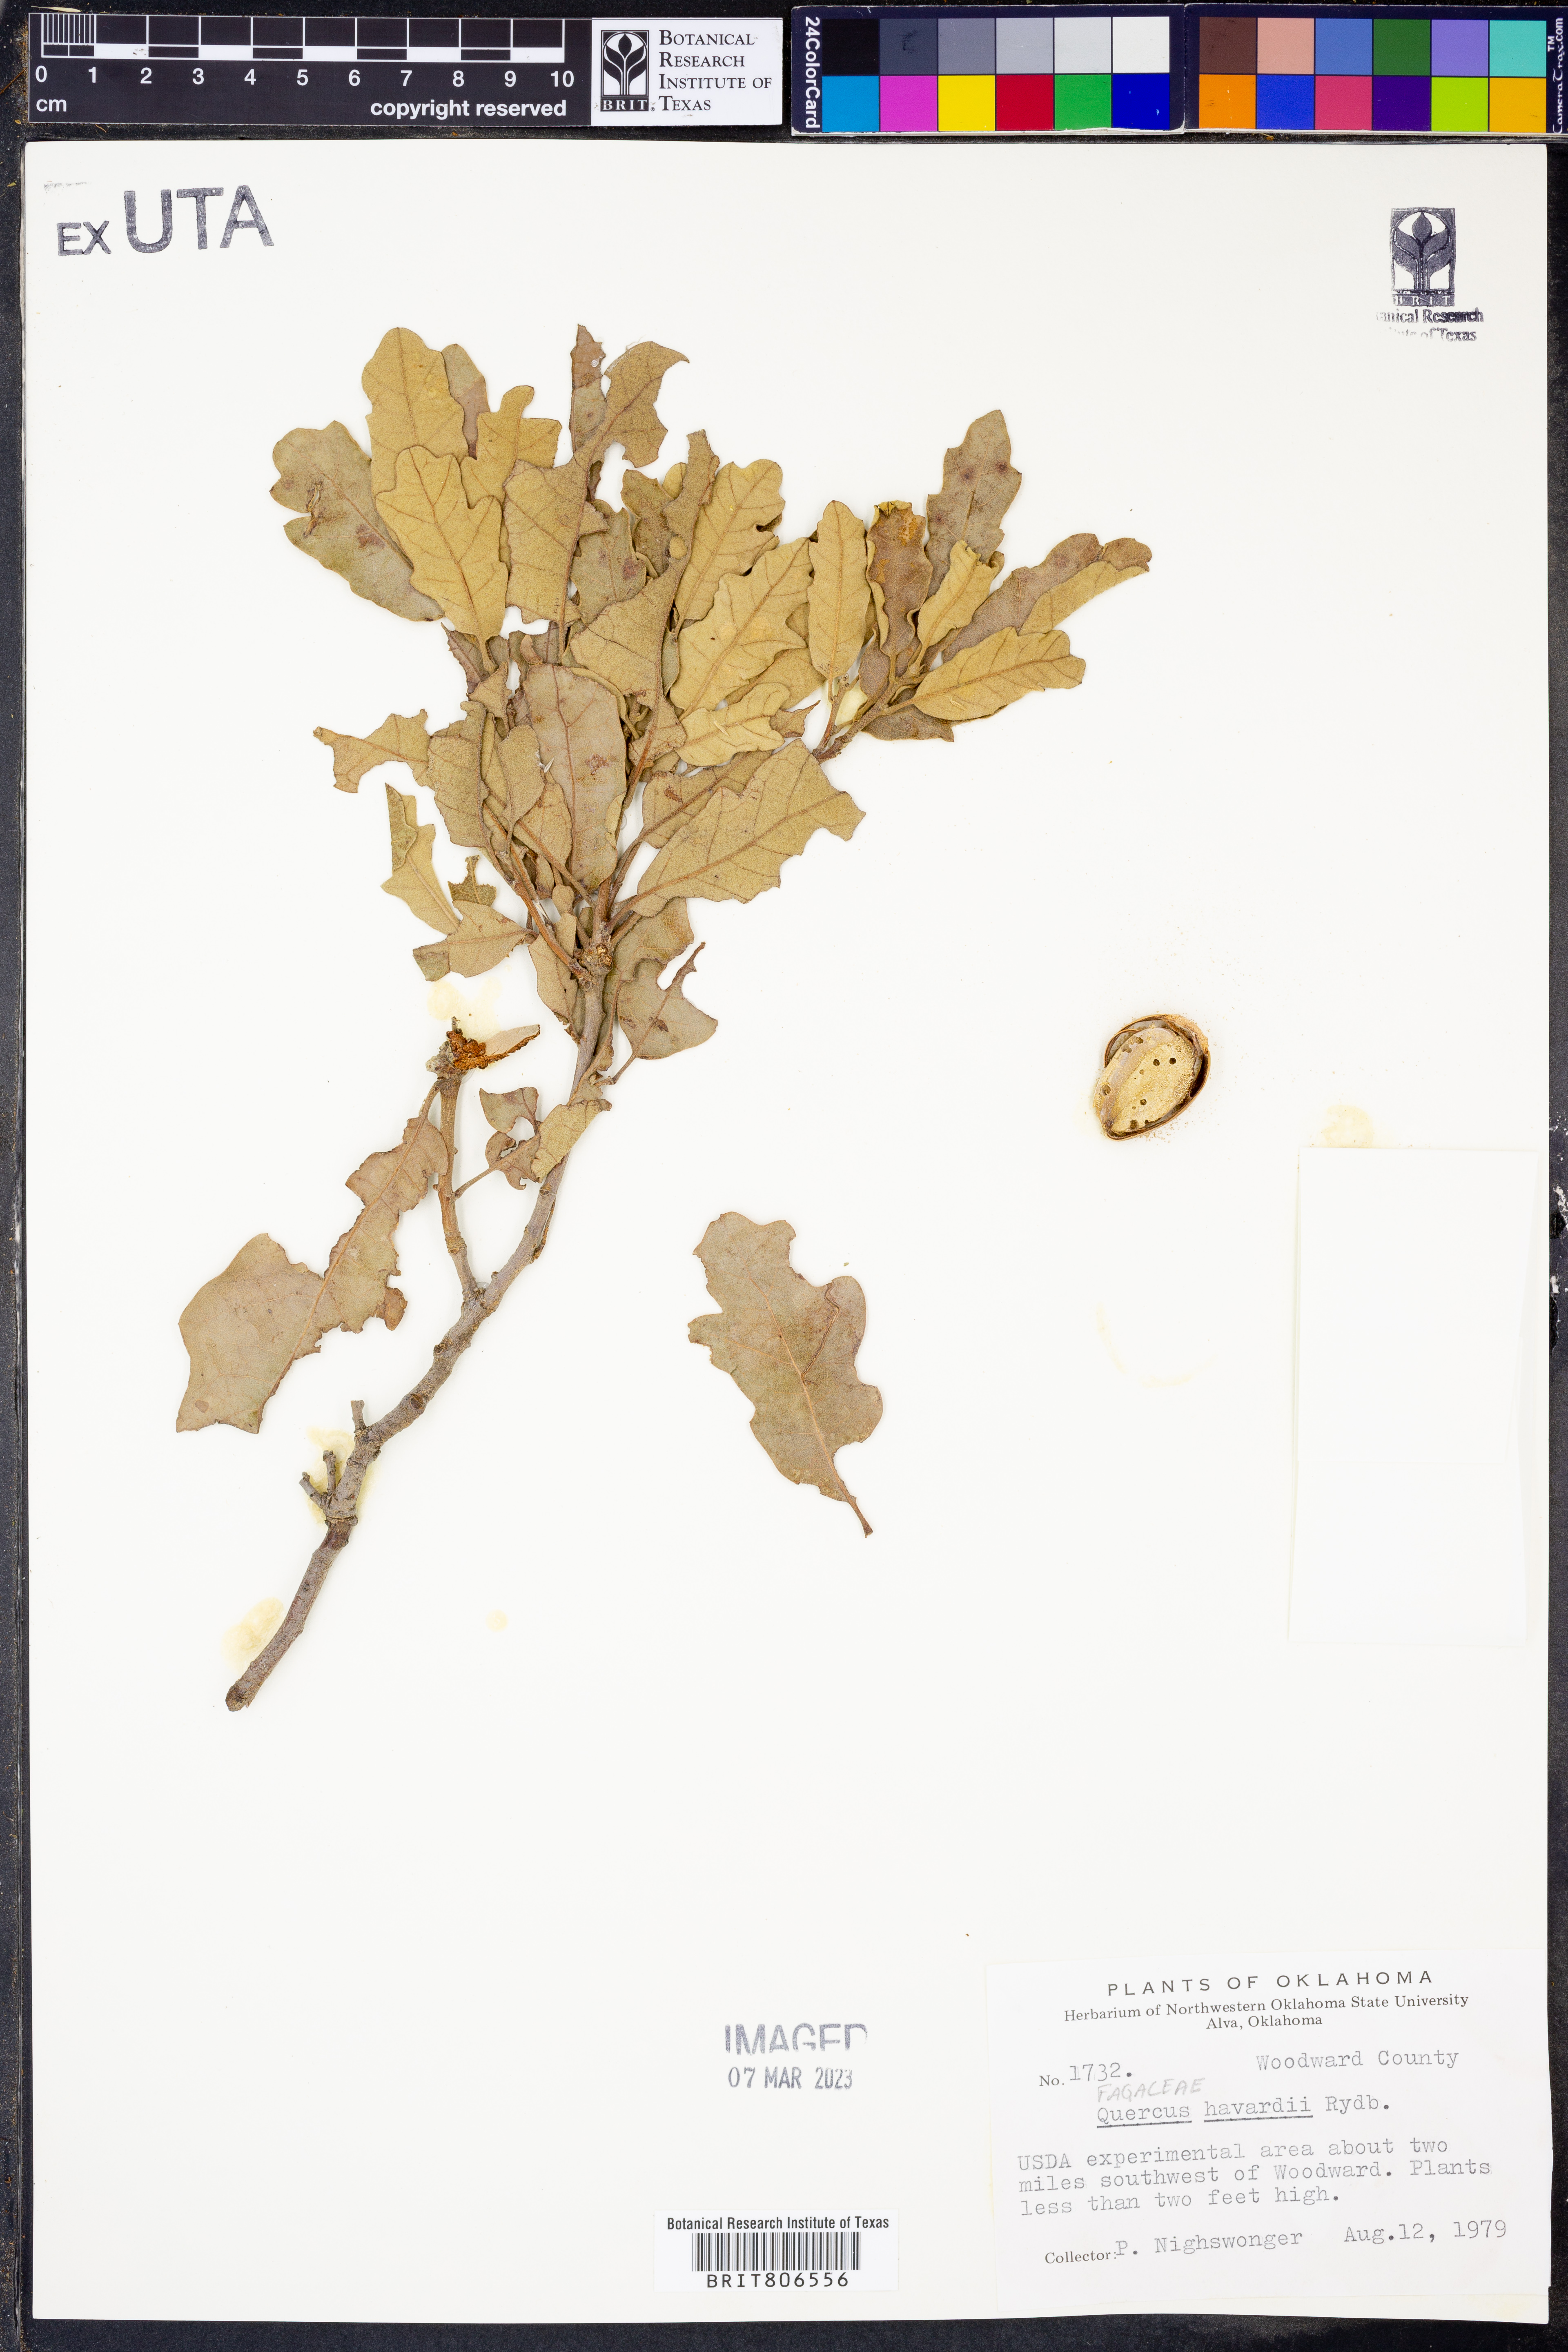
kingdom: Plantae
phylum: Tracheophyta
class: Magnoliopsida
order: Fagales
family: Fagaceae
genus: Quercus
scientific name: Quercus havardii
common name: Shinnery oak
